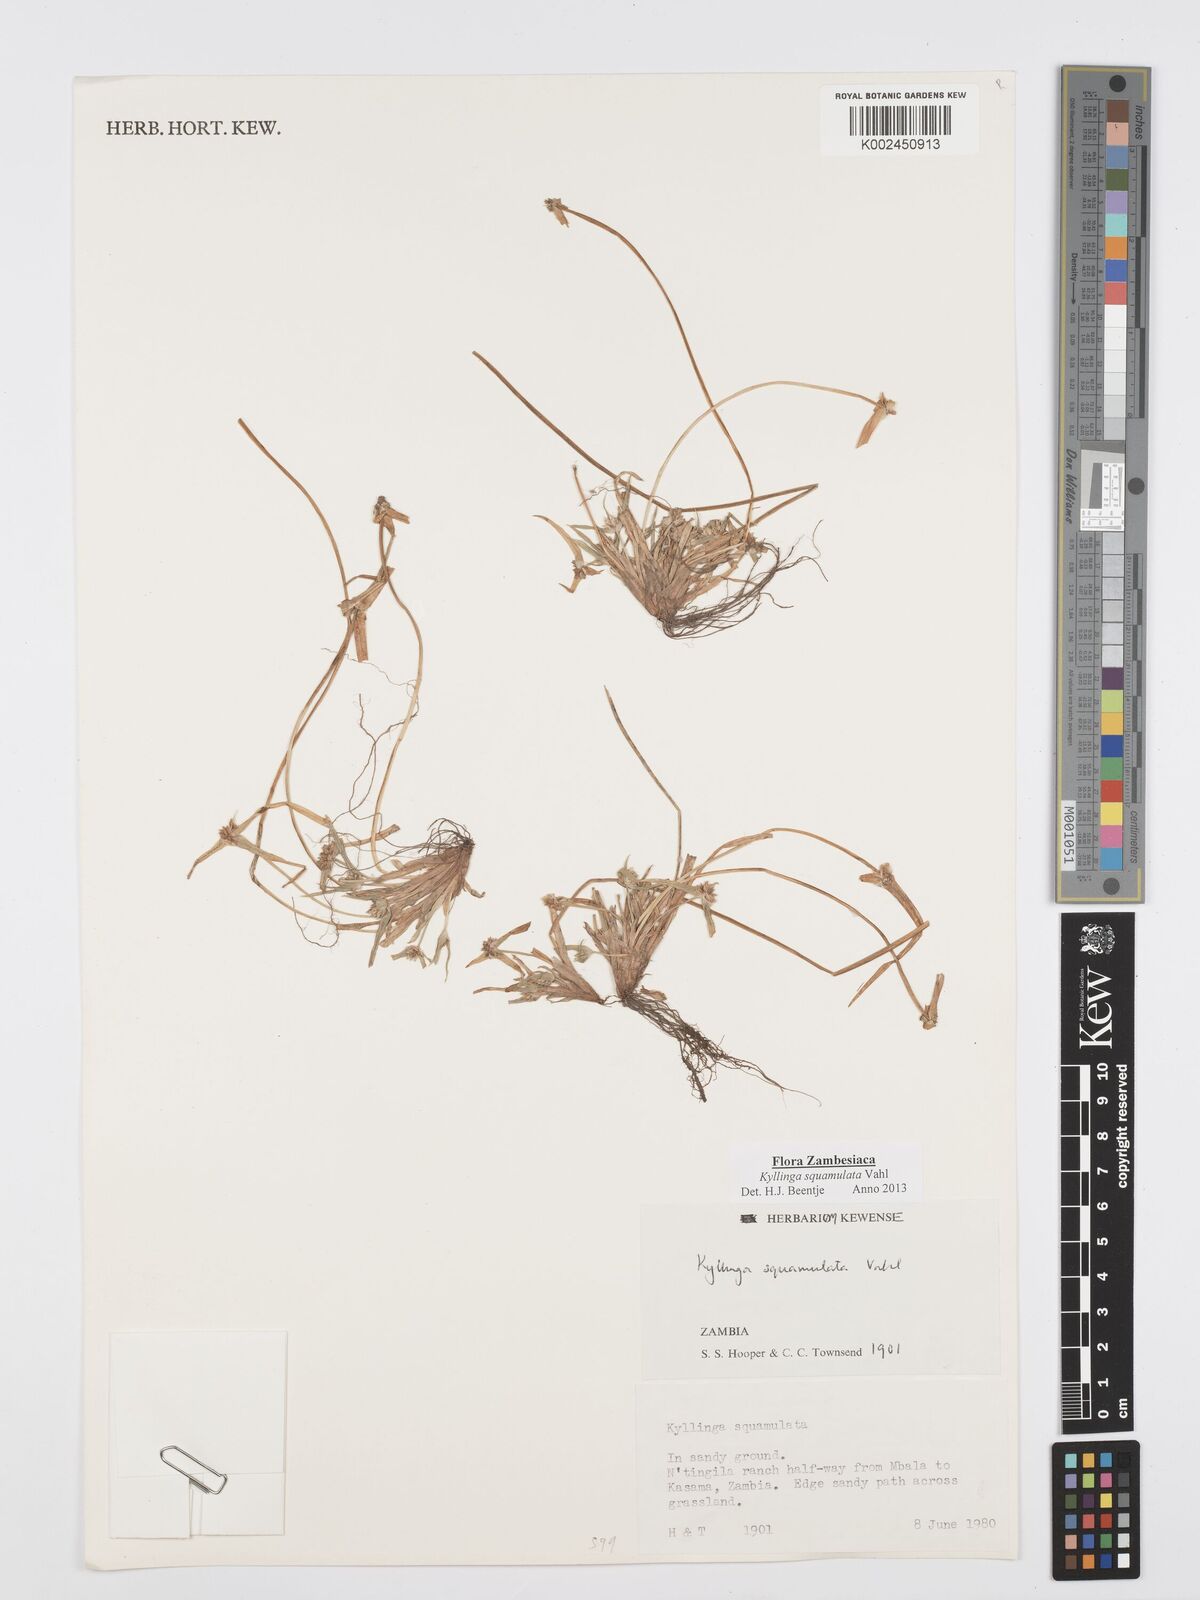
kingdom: Plantae
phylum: Tracheophyta
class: Liliopsida
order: Poales
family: Cyperaceae
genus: Cyperus
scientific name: Cyperus distans
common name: Slender cyperus
